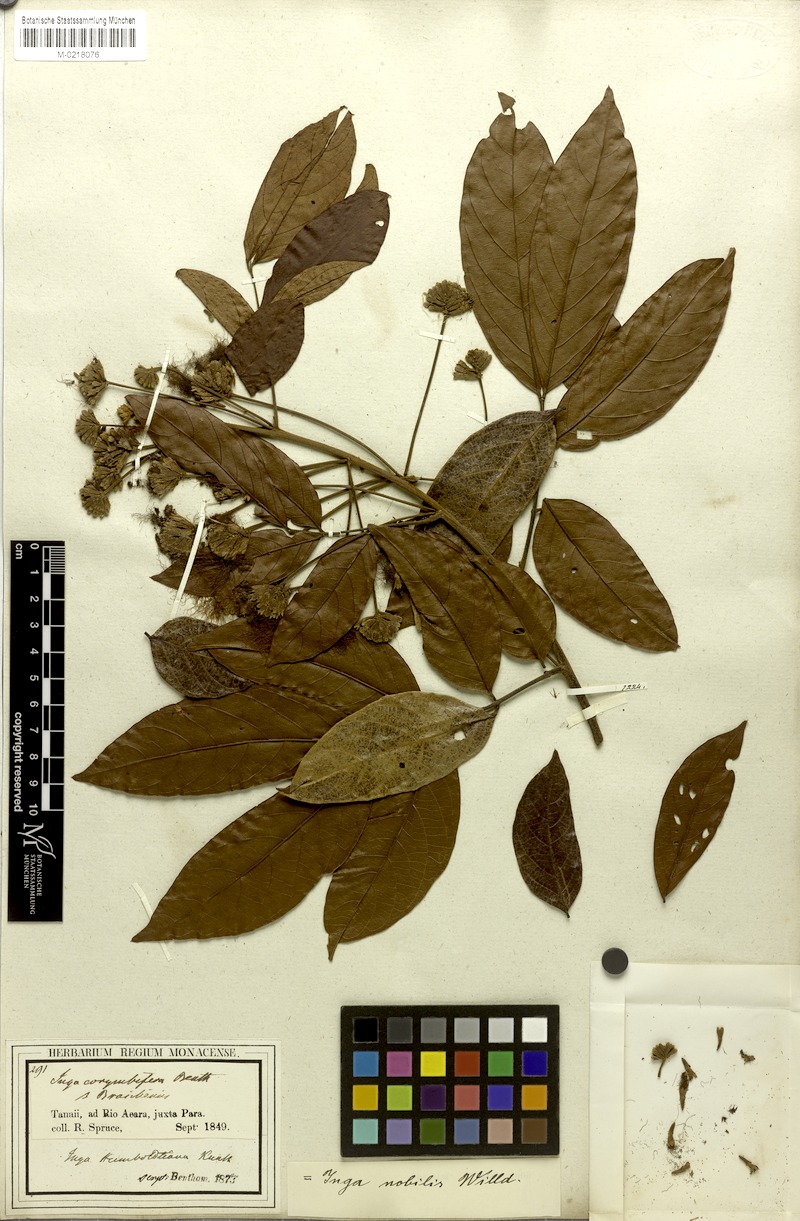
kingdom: Plantae
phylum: Tracheophyta
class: Magnoliopsida
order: Fabales
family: Fabaceae
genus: Inga
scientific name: Inga nobilis
